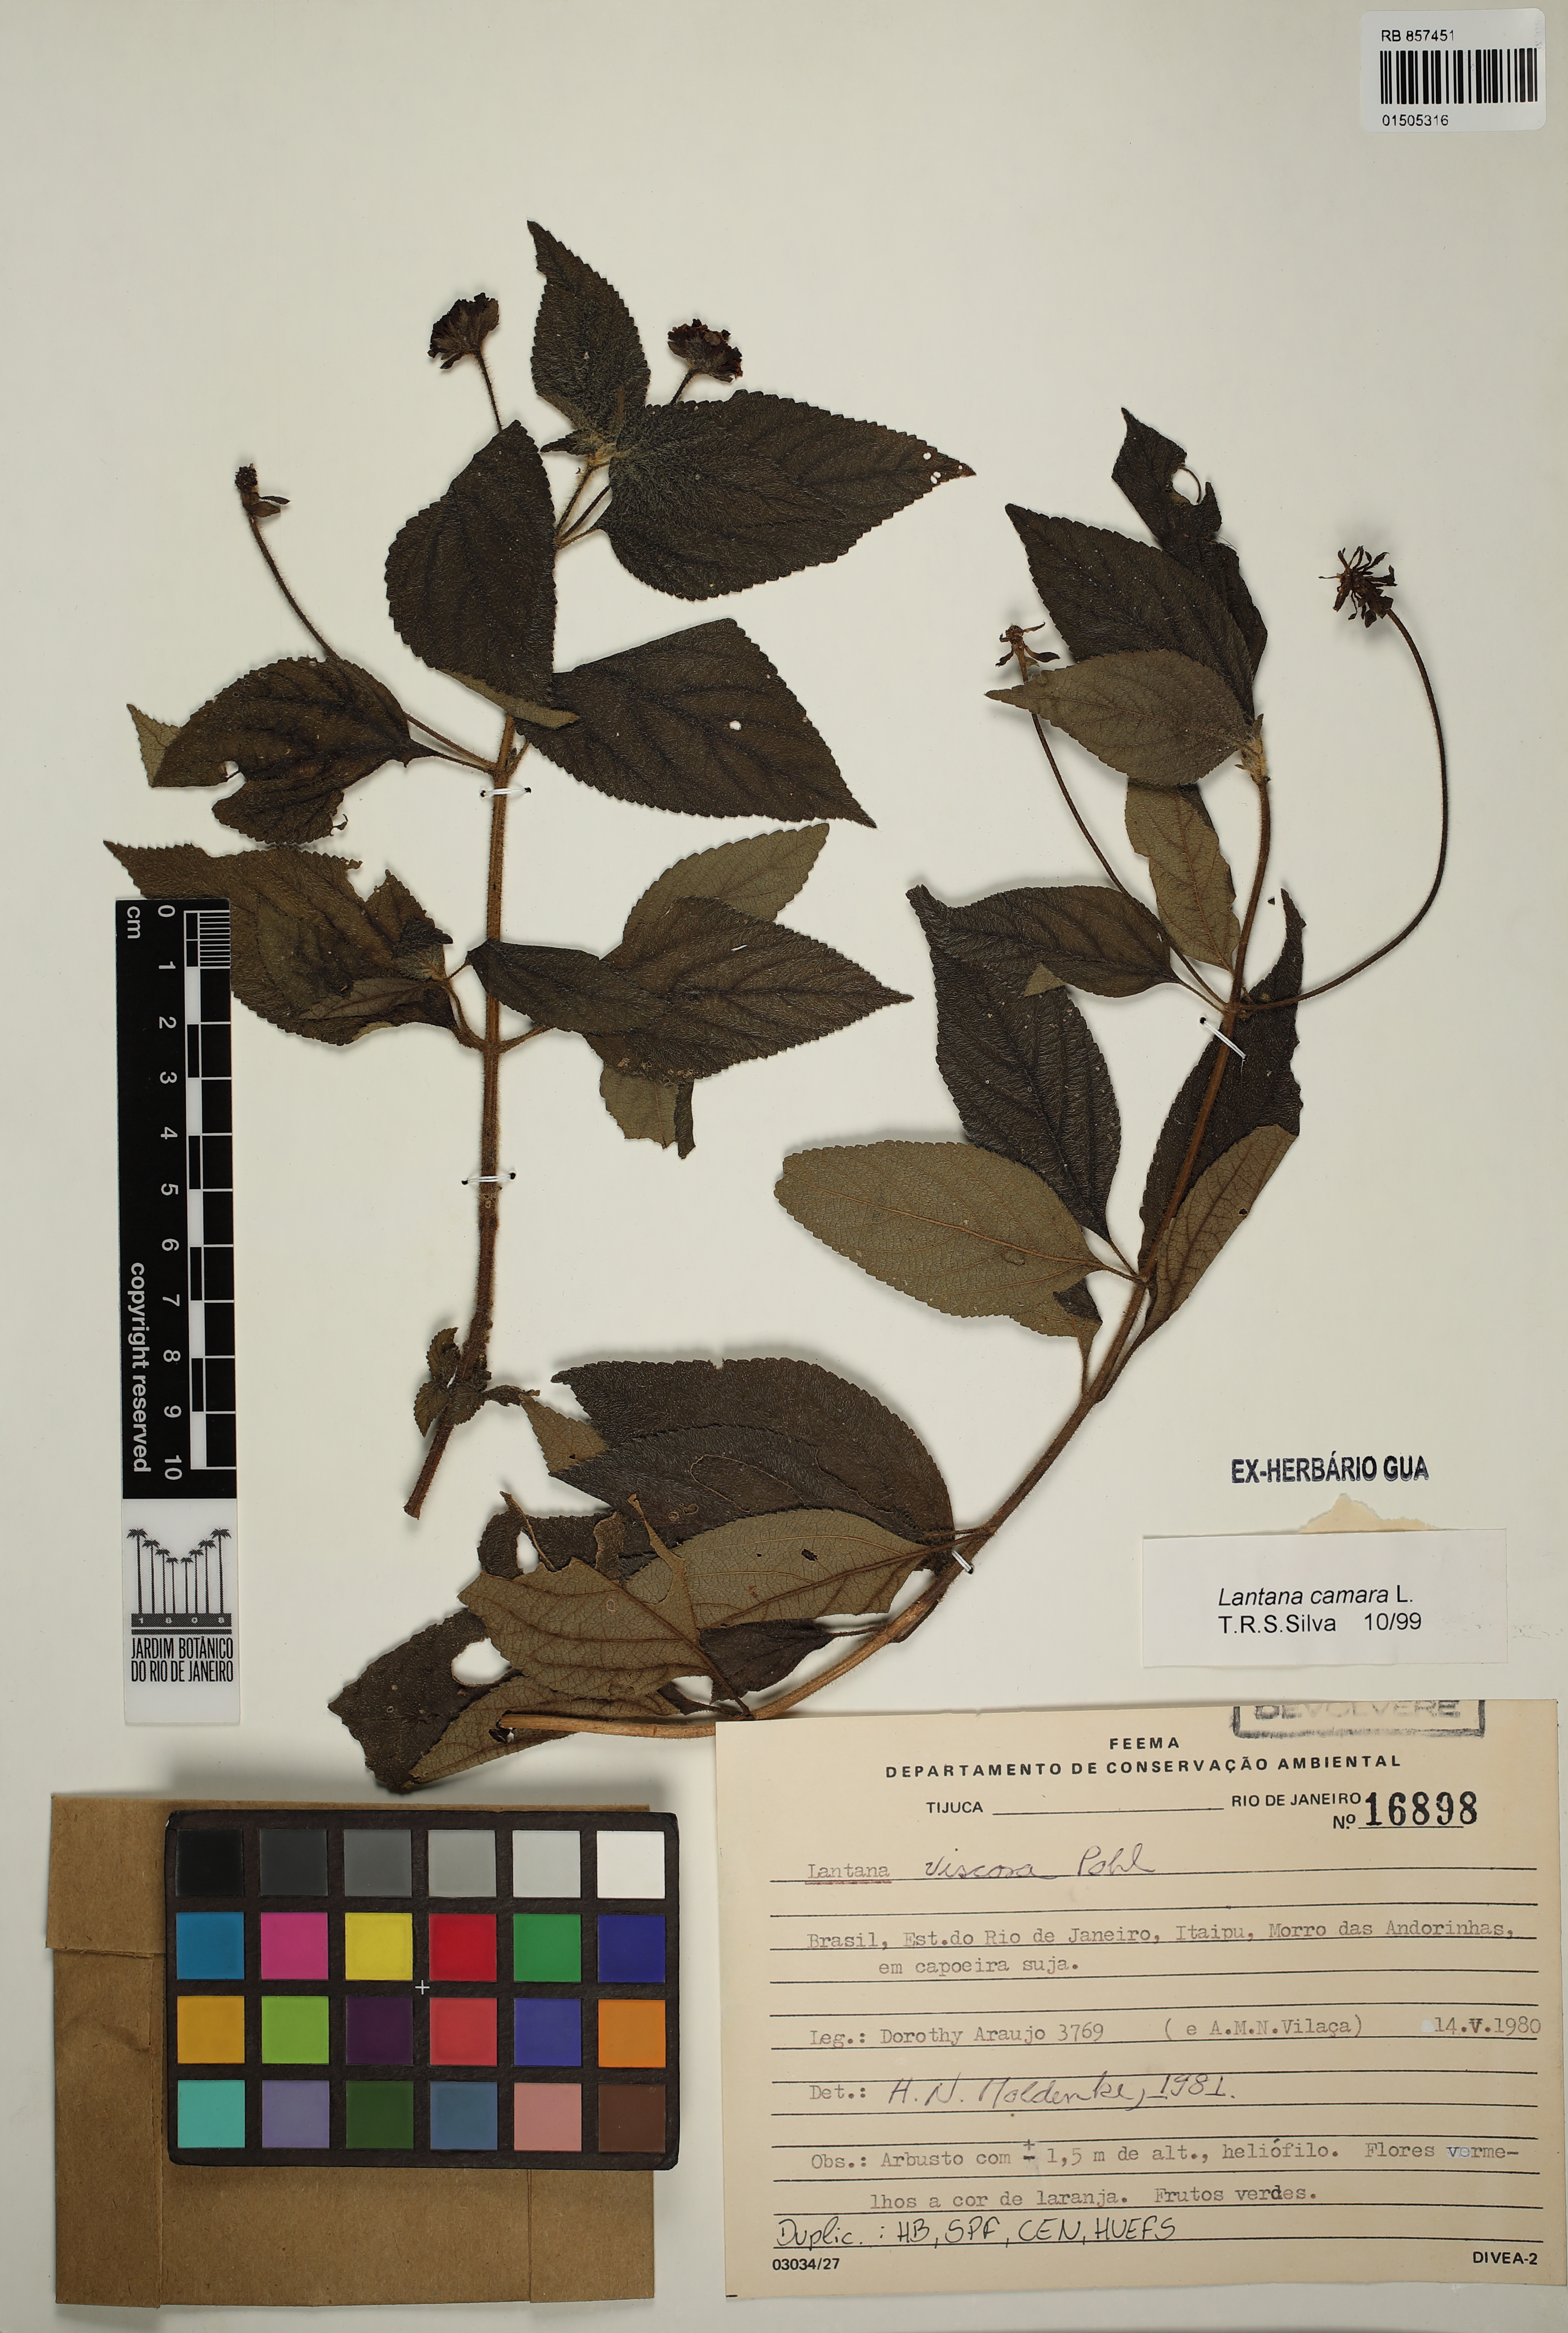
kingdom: Plantae
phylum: Tracheophyta
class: Magnoliopsida
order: Lamiales
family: Verbenaceae
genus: Lantana
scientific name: Lantana viscosa
